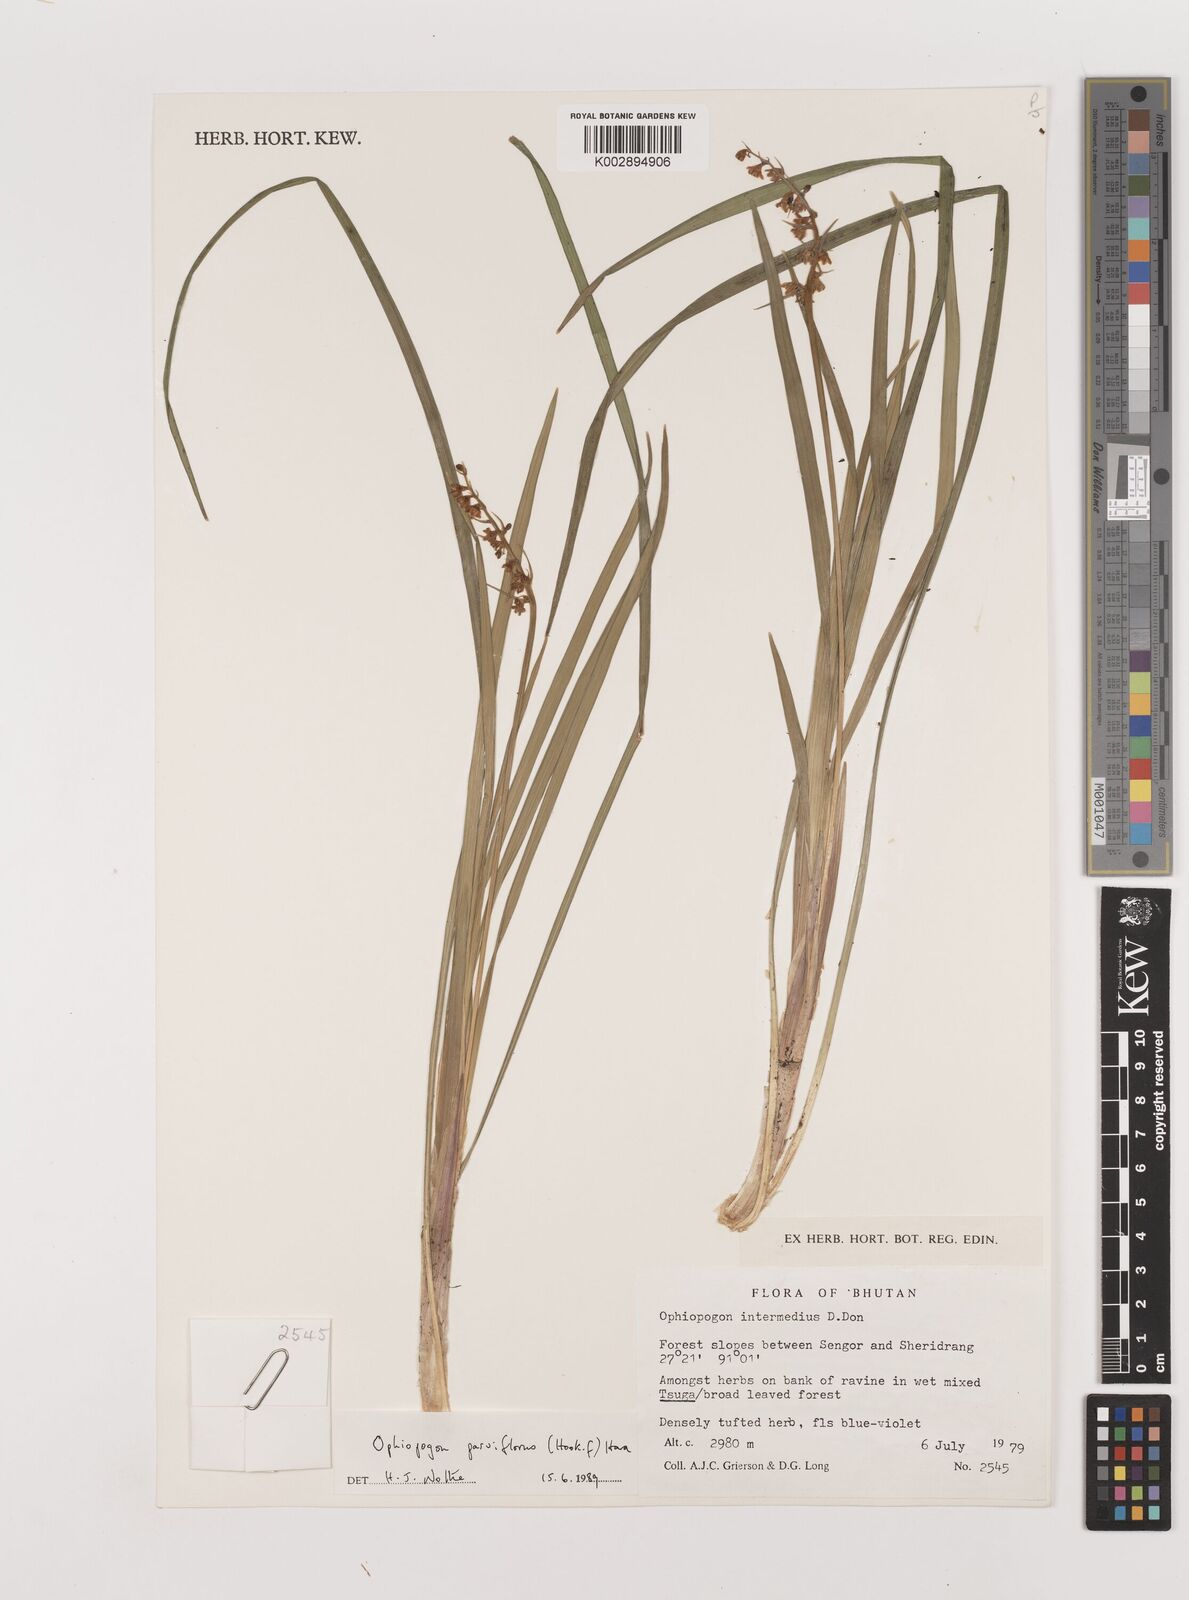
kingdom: Plantae
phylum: Tracheophyta
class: Liliopsida
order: Asparagales
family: Asparagaceae
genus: Ophiopogon
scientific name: Ophiopogon intermedius
